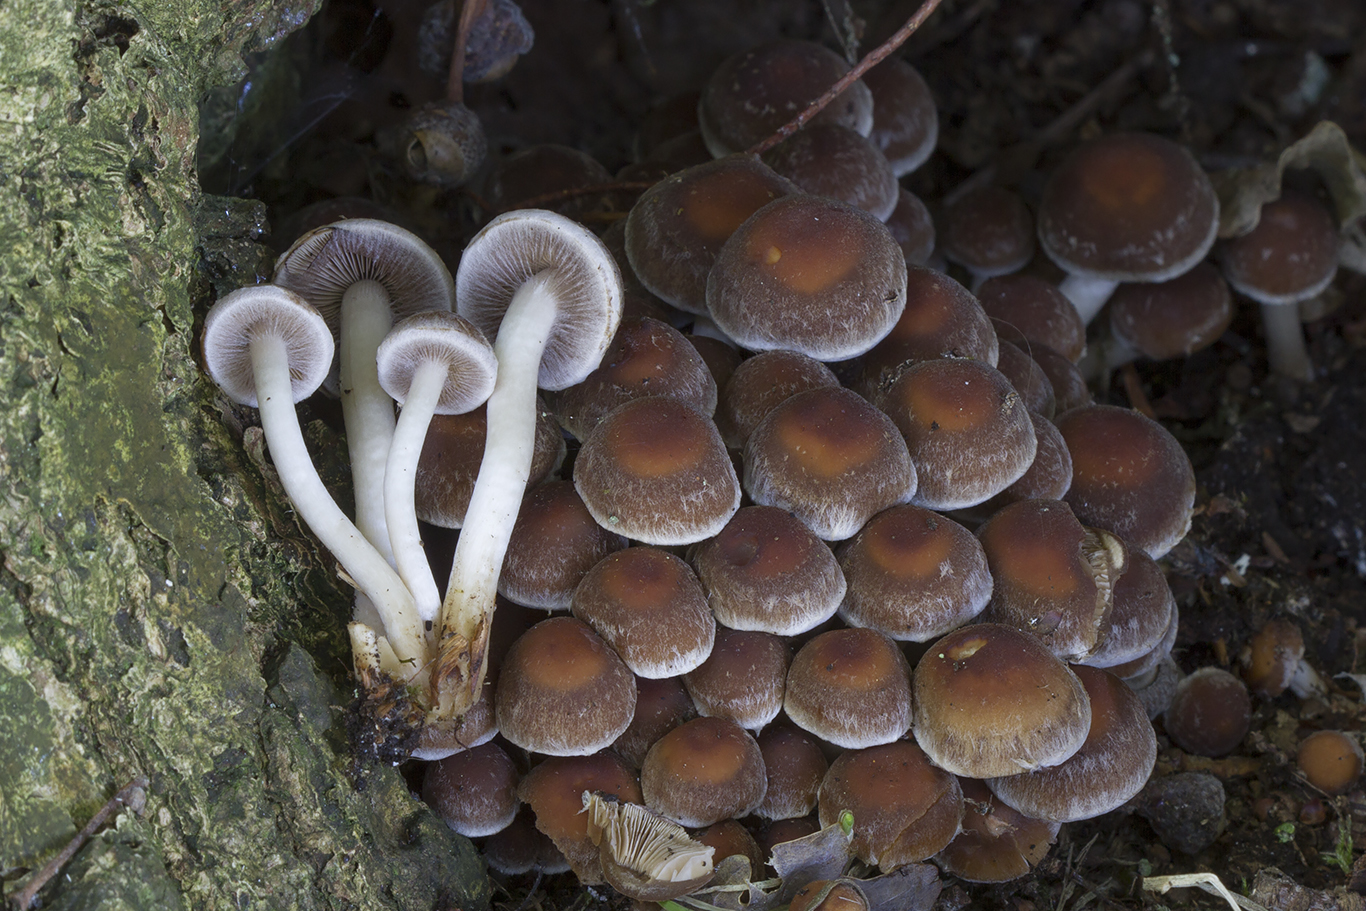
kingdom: Fungi
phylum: Basidiomycota
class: Agaricomycetes
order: Agaricales
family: Psathyrellaceae
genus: Psathyrella
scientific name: Psathyrella piluliformis
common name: lysstokket mørkhat
